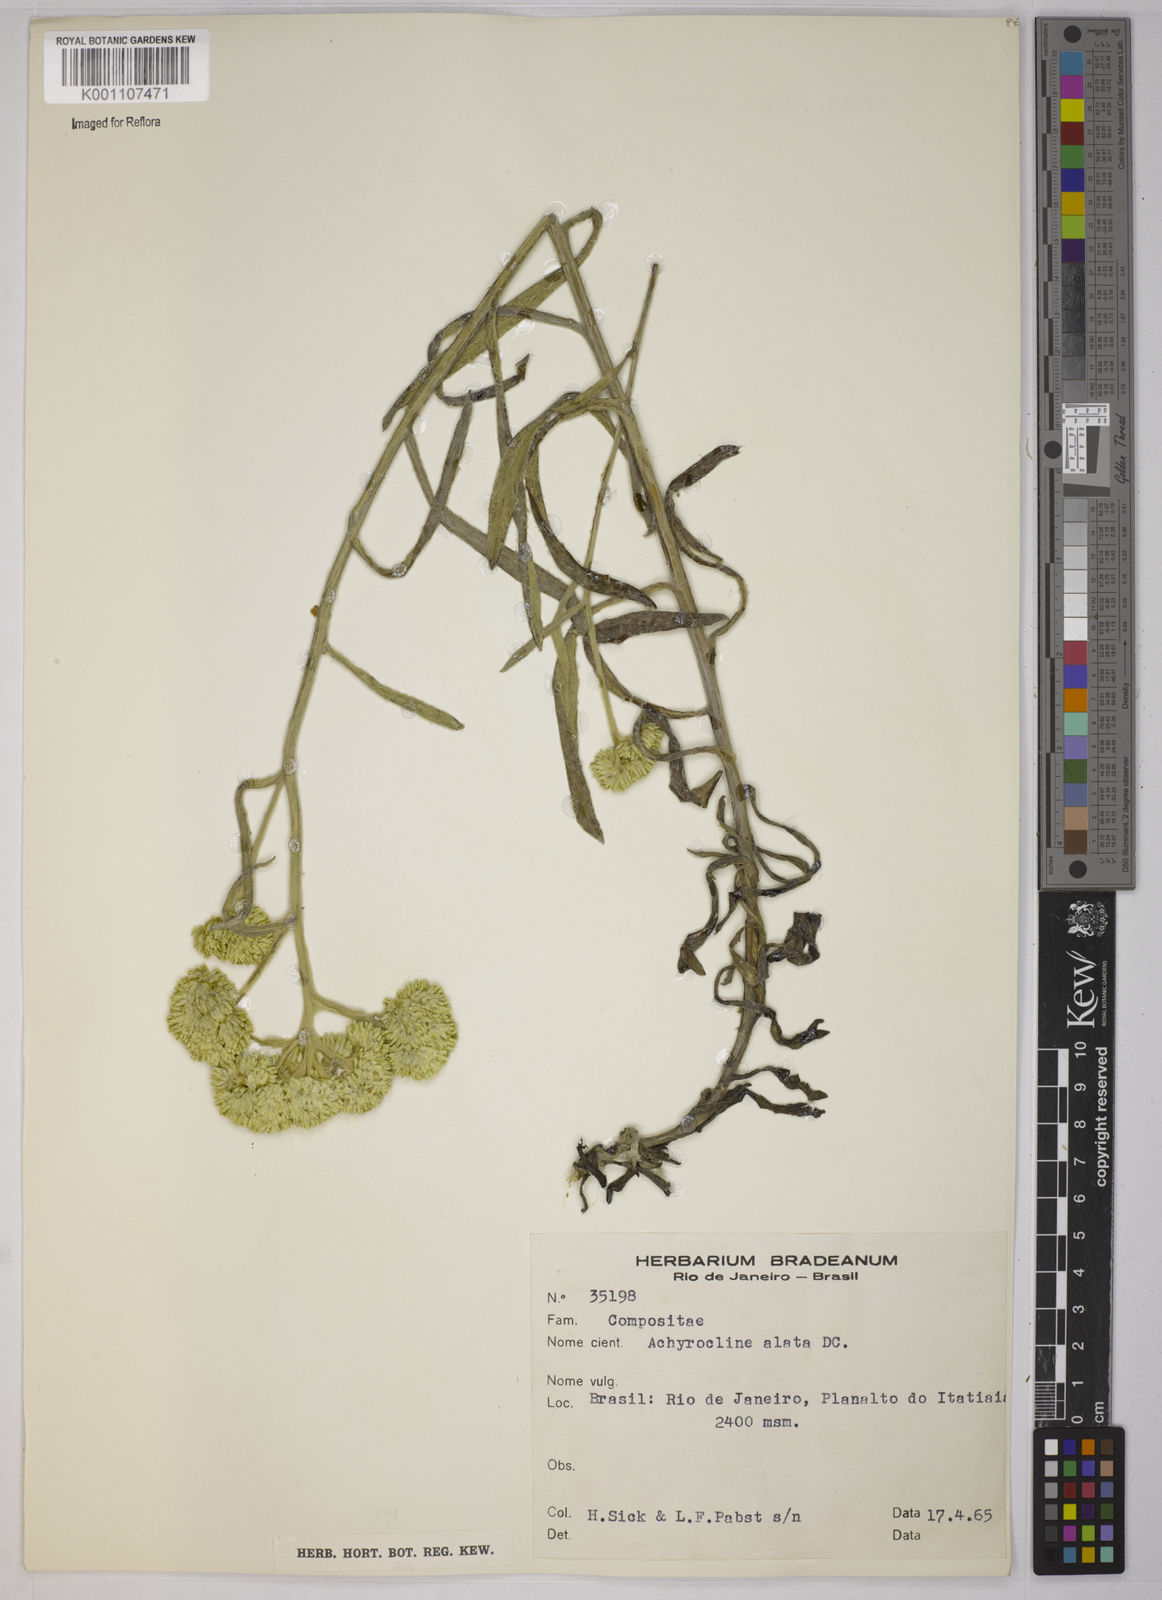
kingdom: Plantae
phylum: Tracheophyta
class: Magnoliopsida
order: Asterales
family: Asteraceae
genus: Achyrocline
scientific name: Achyrocline alata
